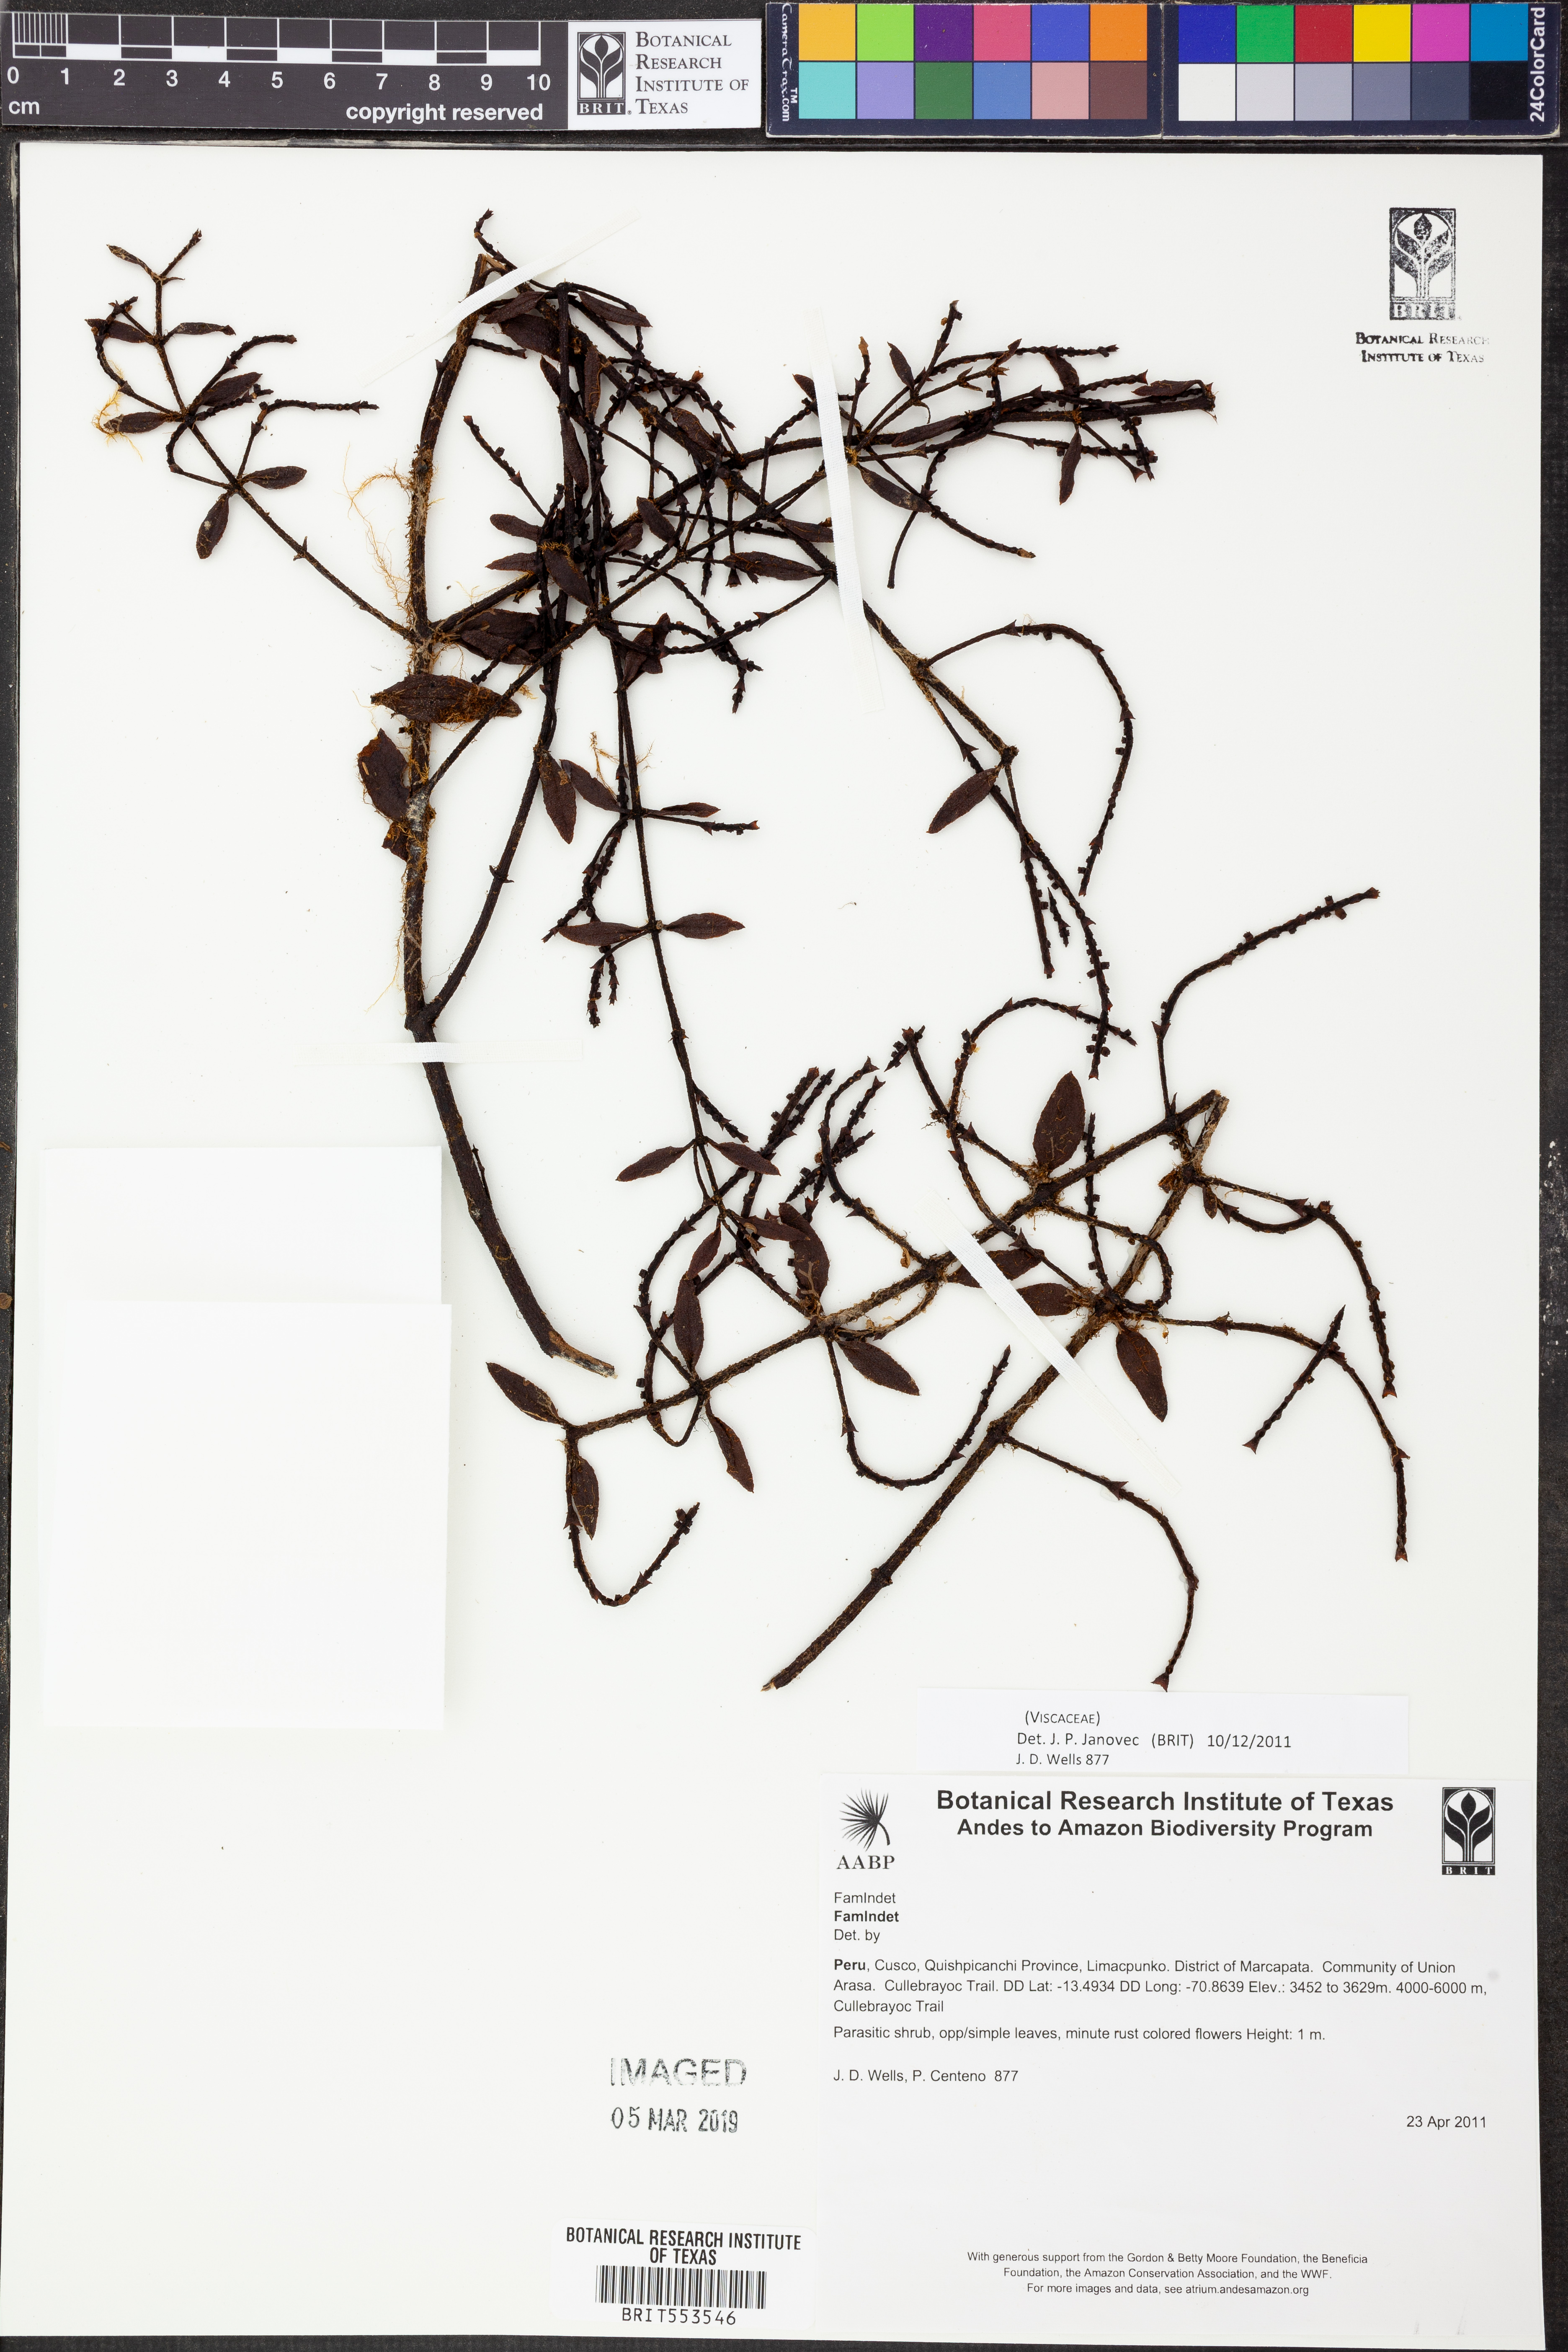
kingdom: Plantae
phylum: Tracheophyta
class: Magnoliopsida
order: Santalales
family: Viscaceae
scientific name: Viscaceae
